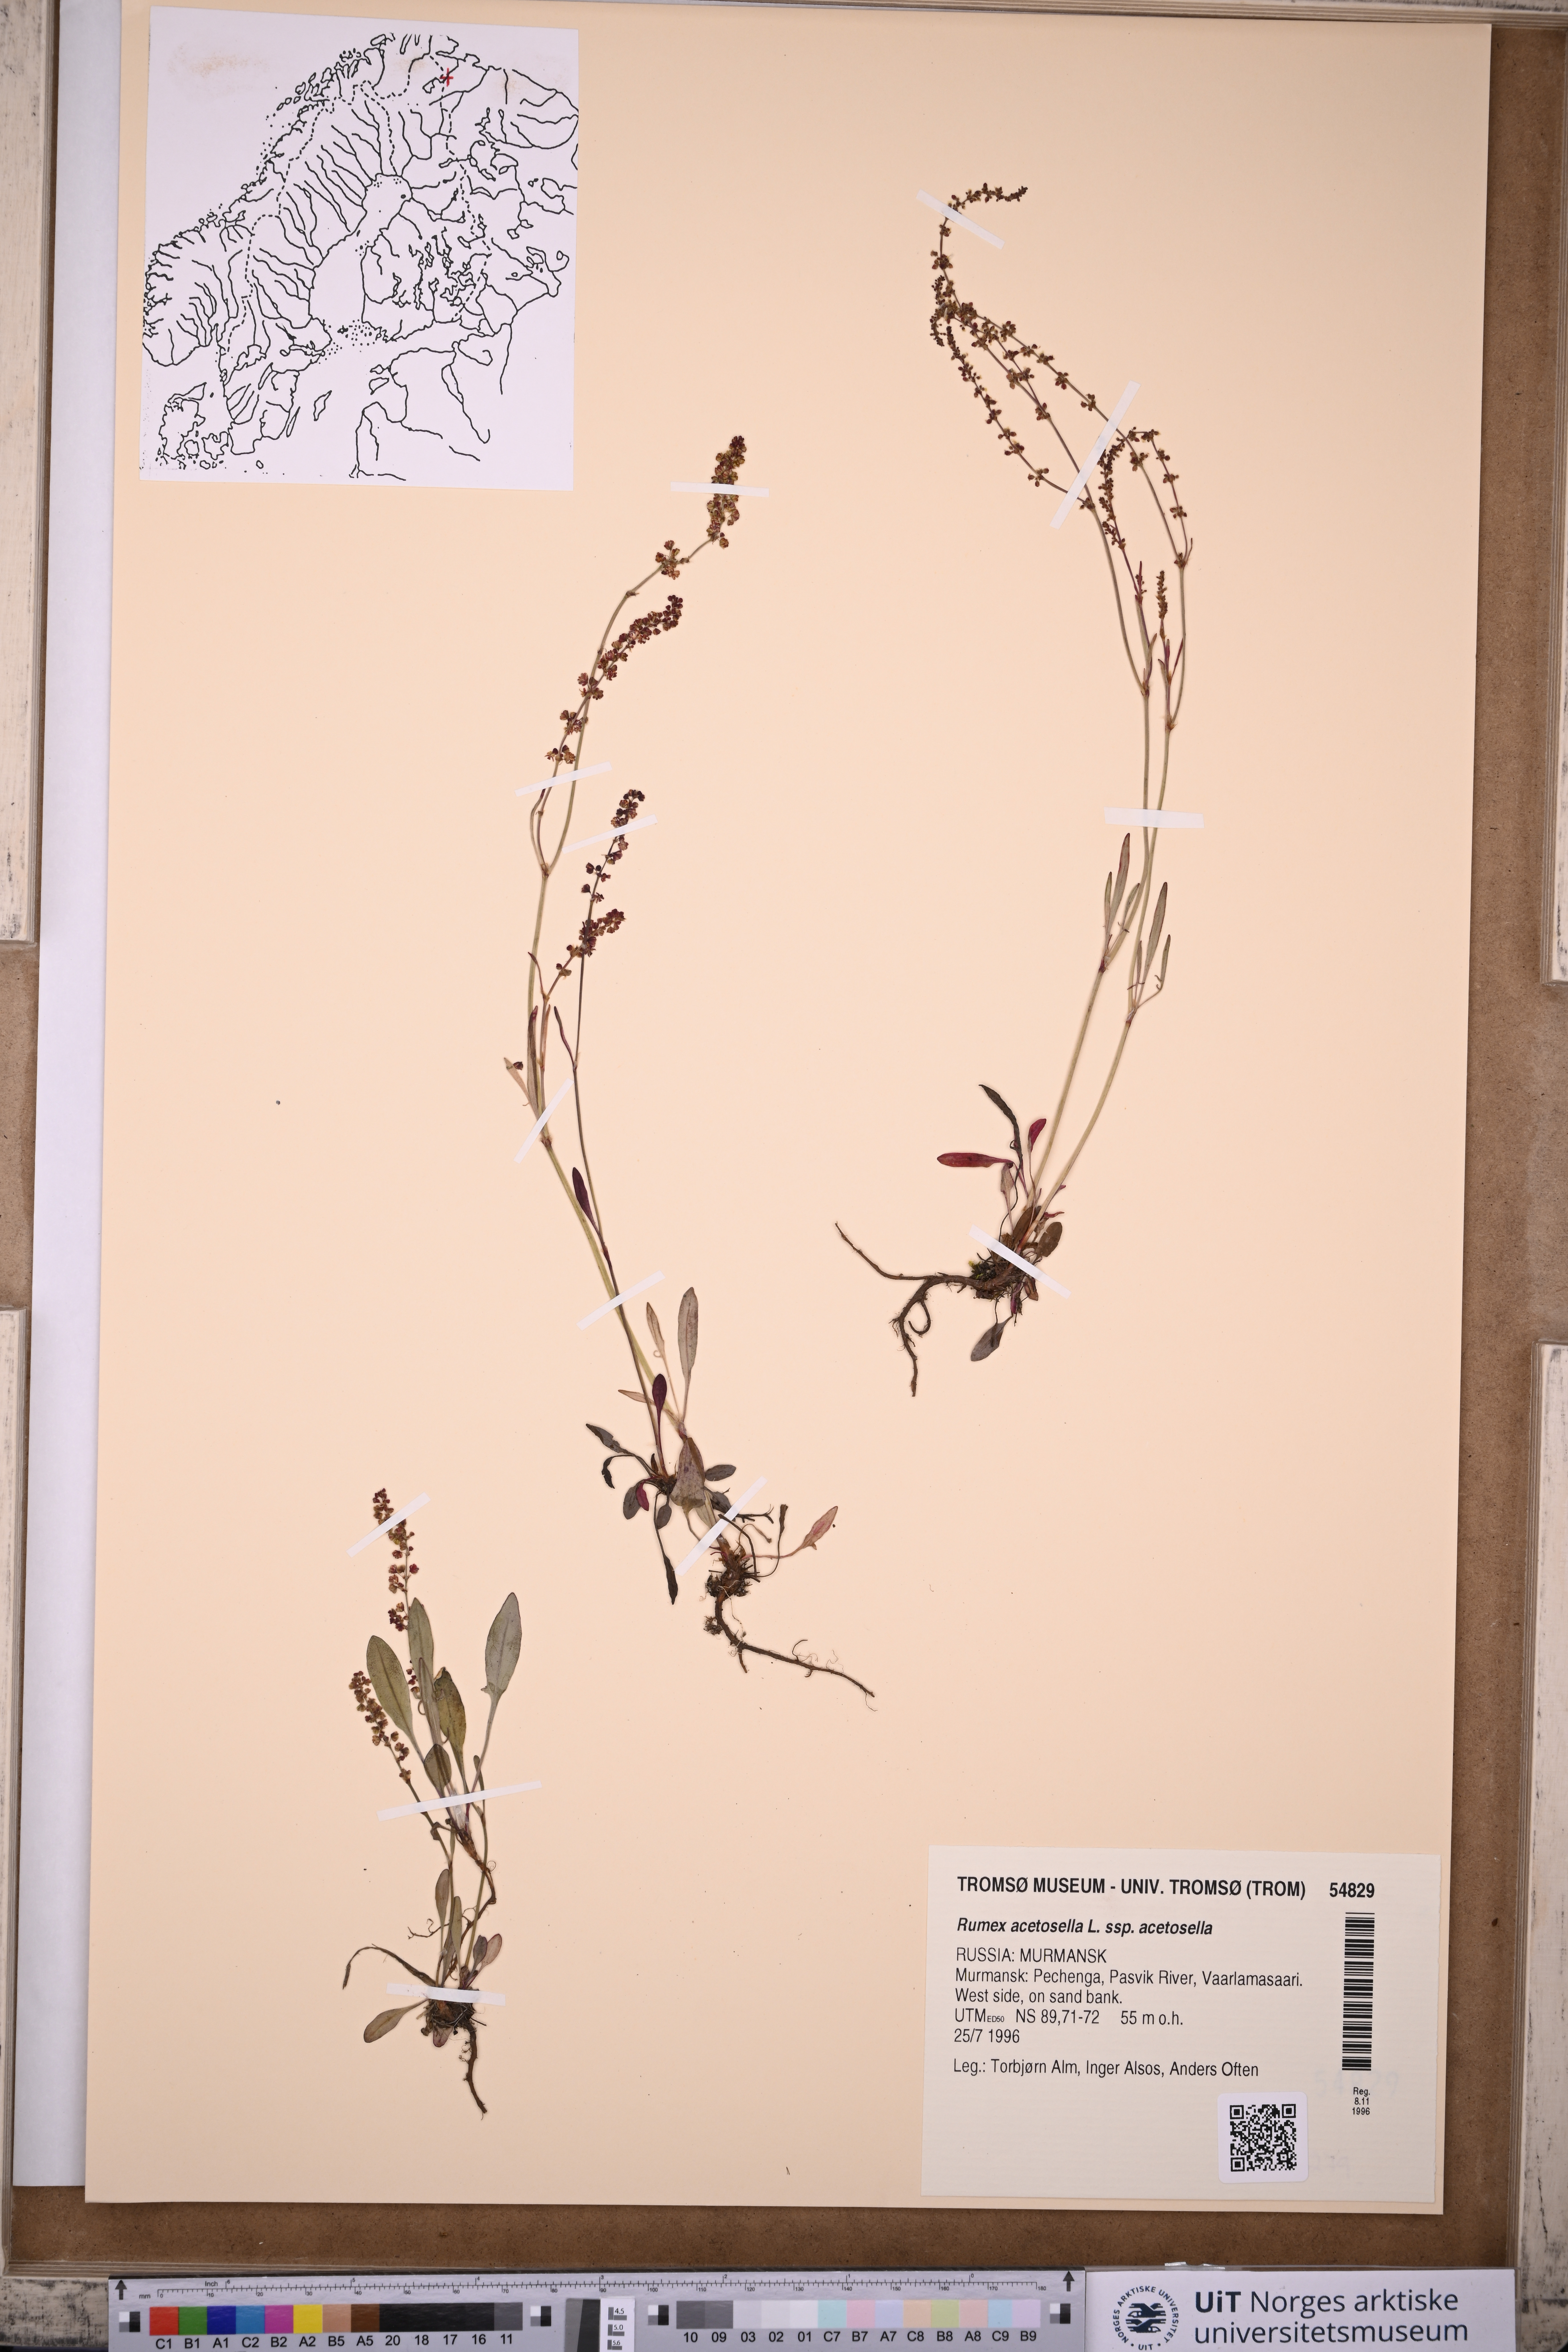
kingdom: Plantae
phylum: Tracheophyta
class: Magnoliopsida
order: Caryophyllales
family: Polygonaceae
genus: Rumex
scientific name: Rumex acetosella
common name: Common sheep sorrel
